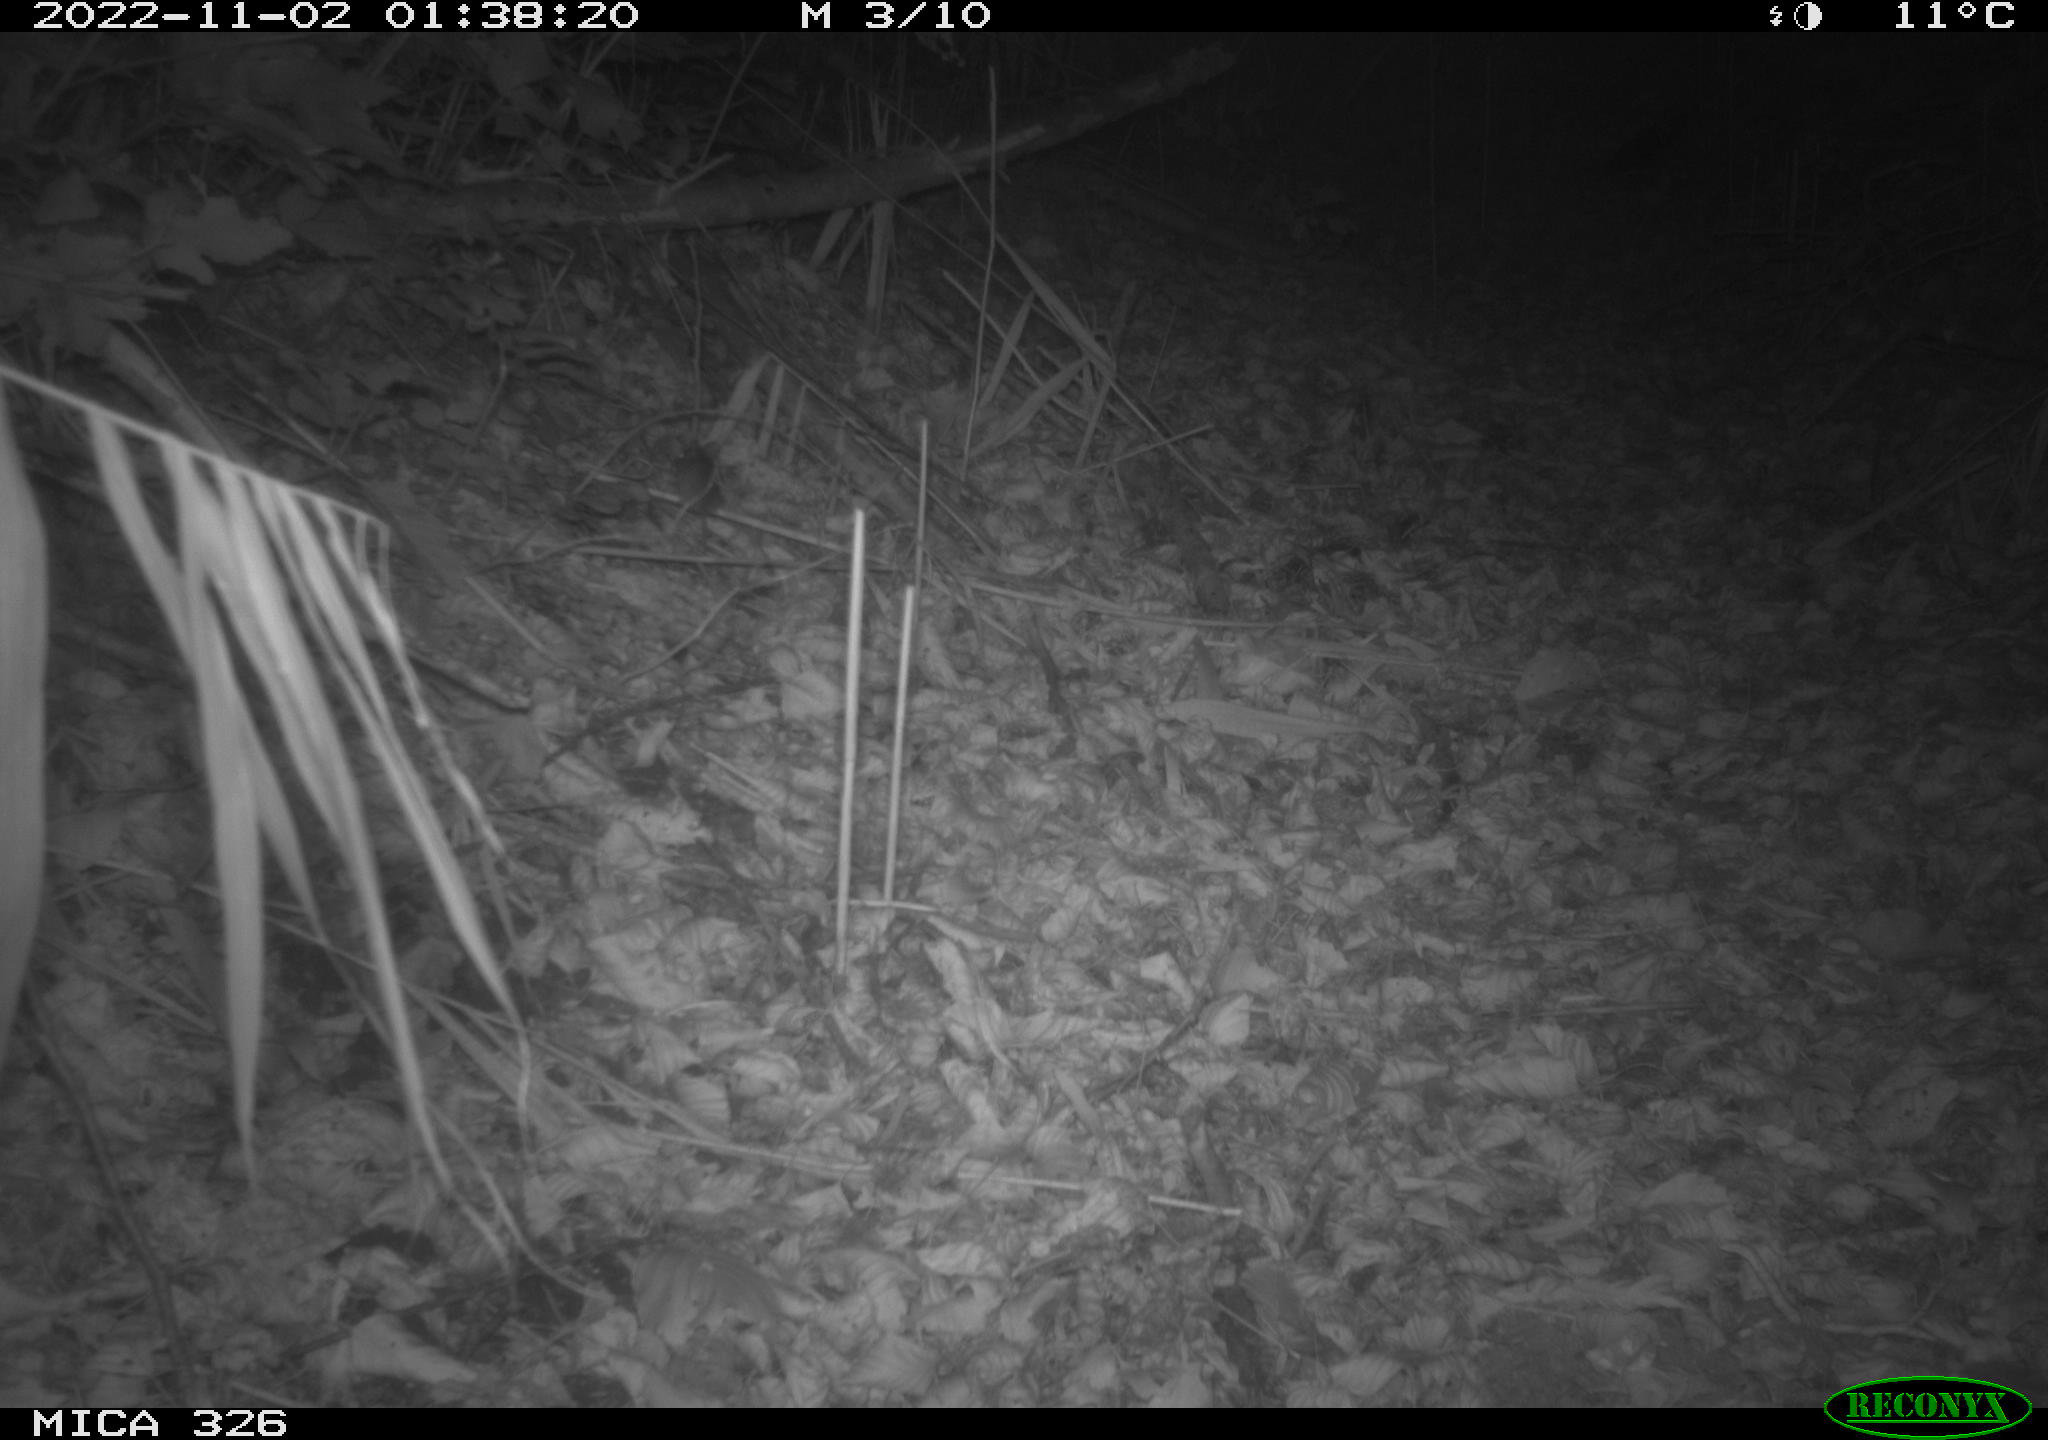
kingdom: Animalia
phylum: Chordata
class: Mammalia
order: Rodentia
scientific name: Rodentia
